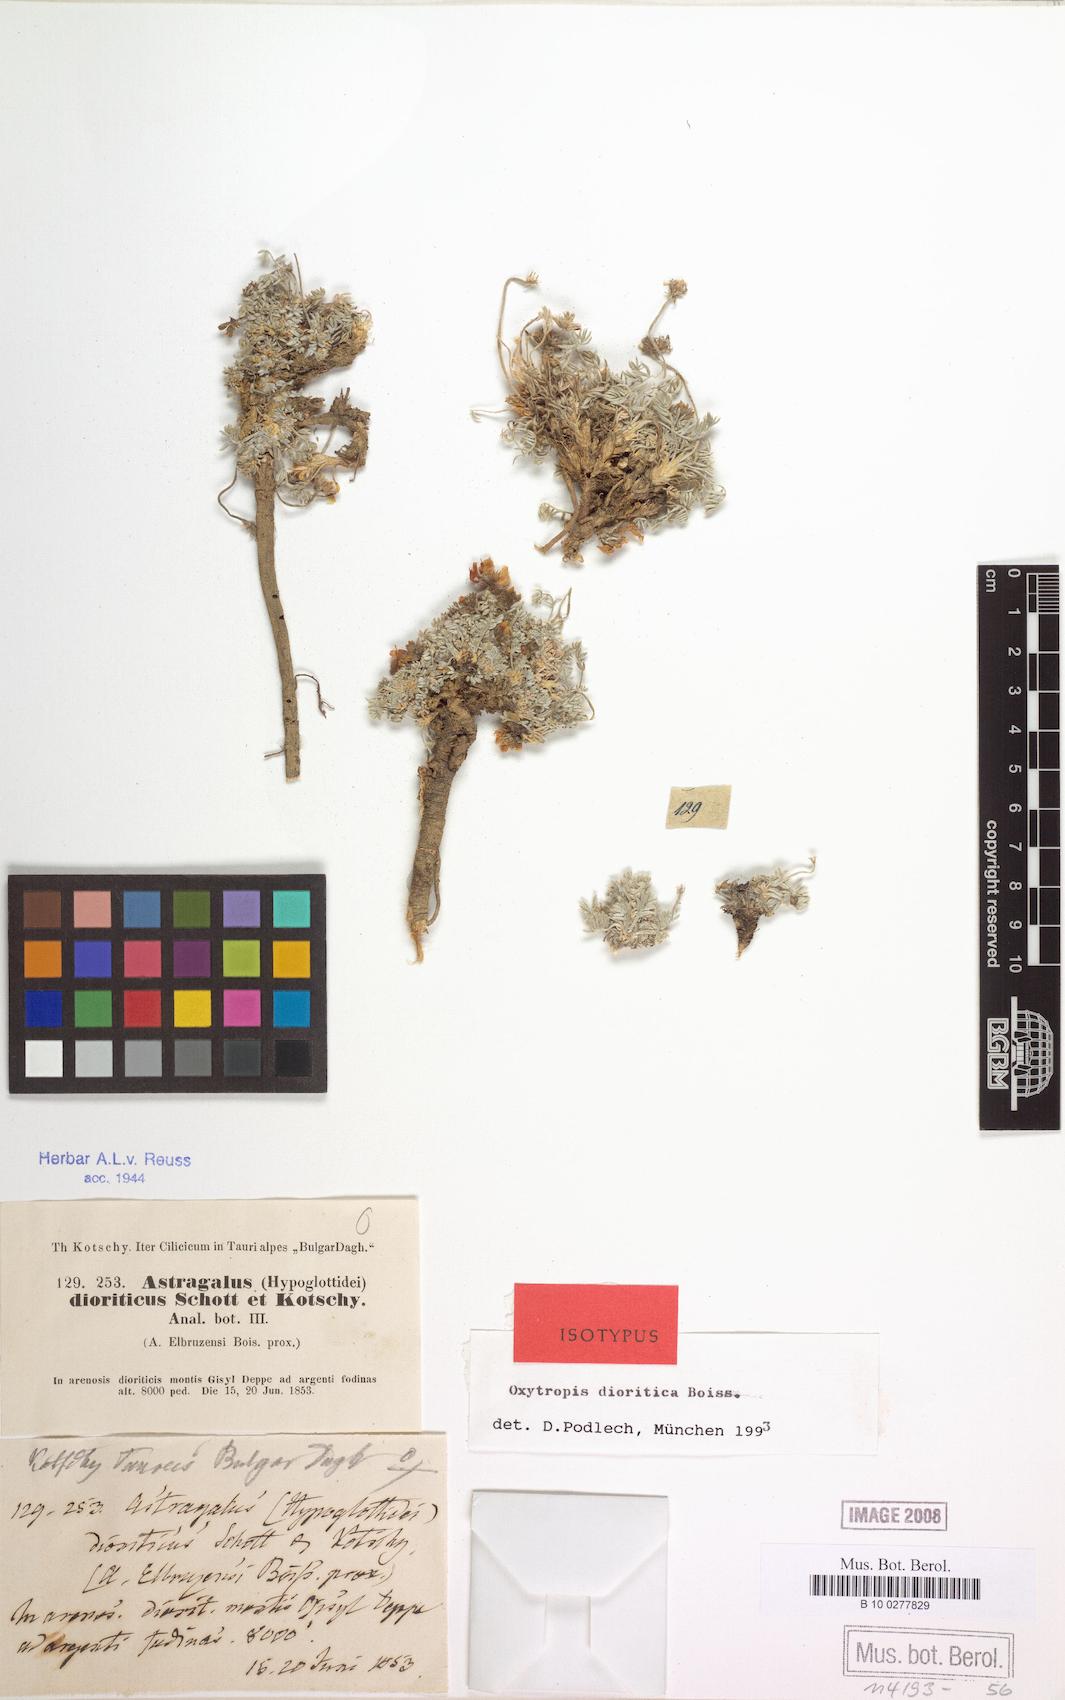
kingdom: Plantae
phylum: Tracheophyta
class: Magnoliopsida
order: Fabales
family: Fabaceae
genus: Oxytropis
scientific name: Oxytropis persica
